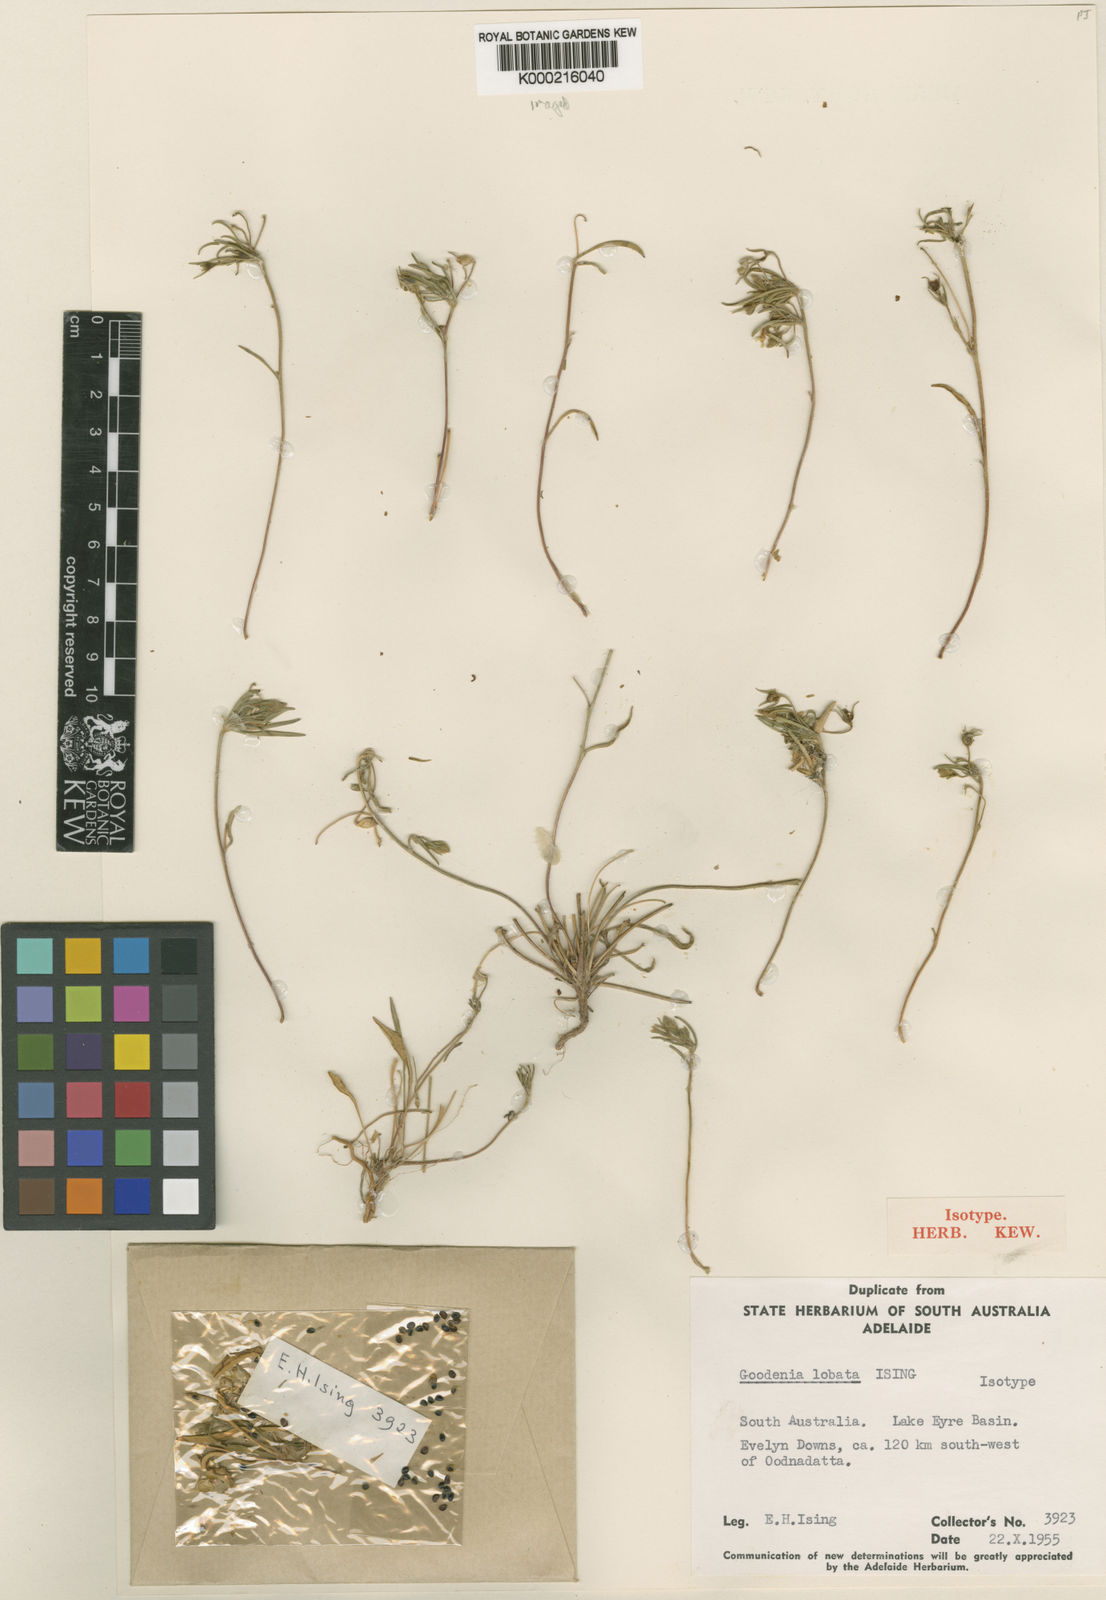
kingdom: Plantae
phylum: Tracheophyta
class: Magnoliopsida
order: Asterales
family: Goodeniaceae
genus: Goodenia
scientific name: Goodenia lobata
